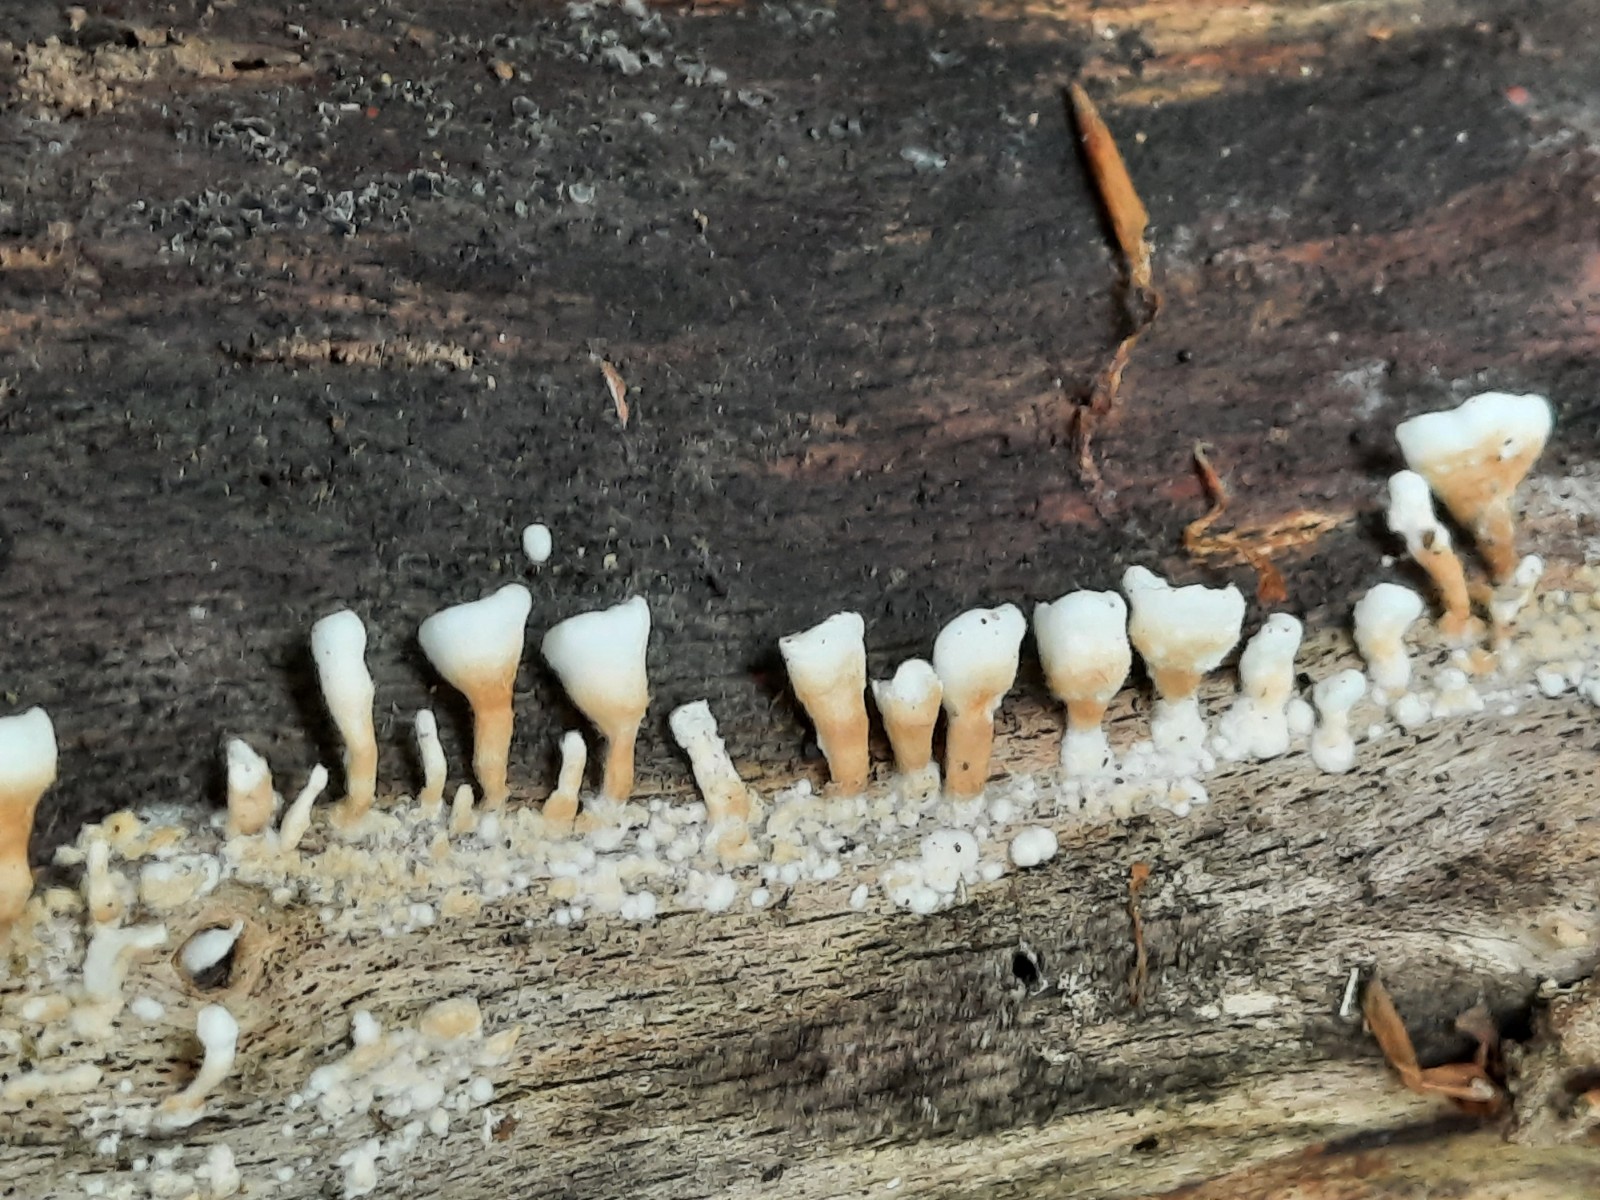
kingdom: Fungi
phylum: Basidiomycota
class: Agaricomycetes
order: Amylocorticiales
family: Amylocorticiaceae
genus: Plicaturopsis
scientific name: Plicaturopsis crispa
